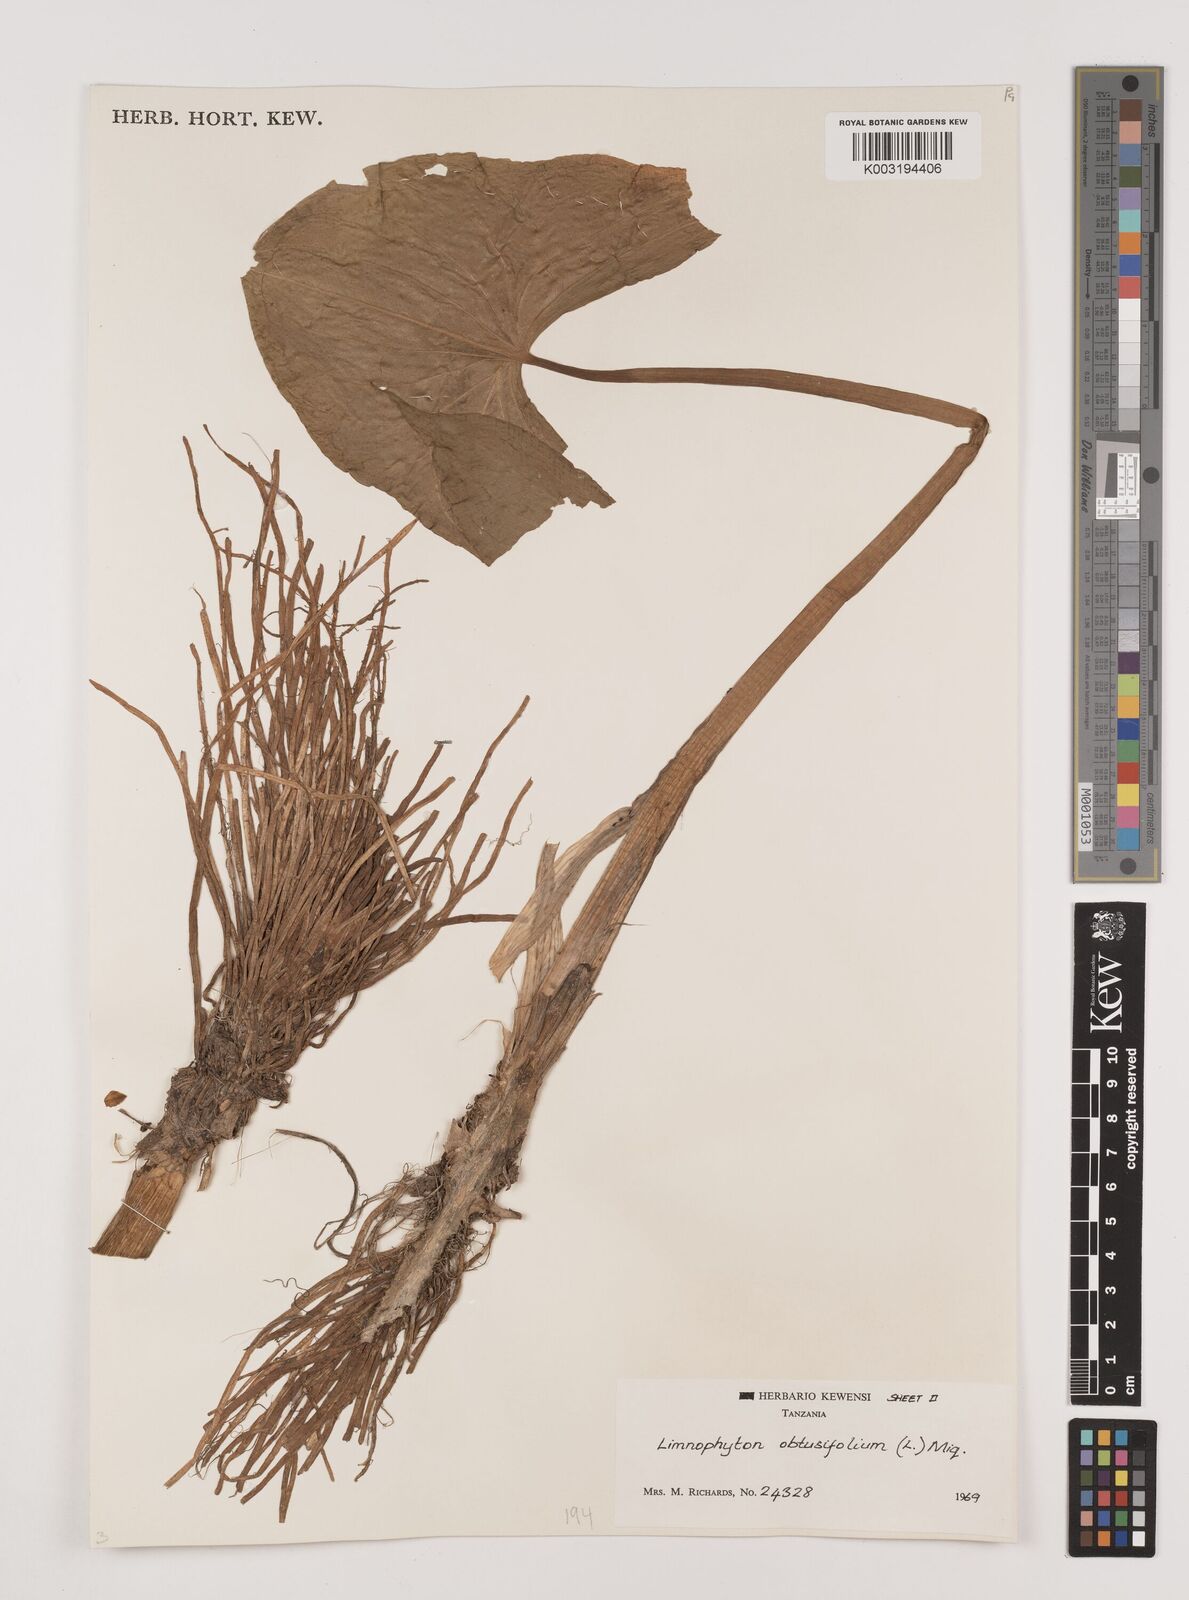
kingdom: Plantae
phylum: Tracheophyta
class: Liliopsida
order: Alismatales
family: Alismataceae
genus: Limnophyton
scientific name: Limnophyton obtusifolium
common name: Arrow head
